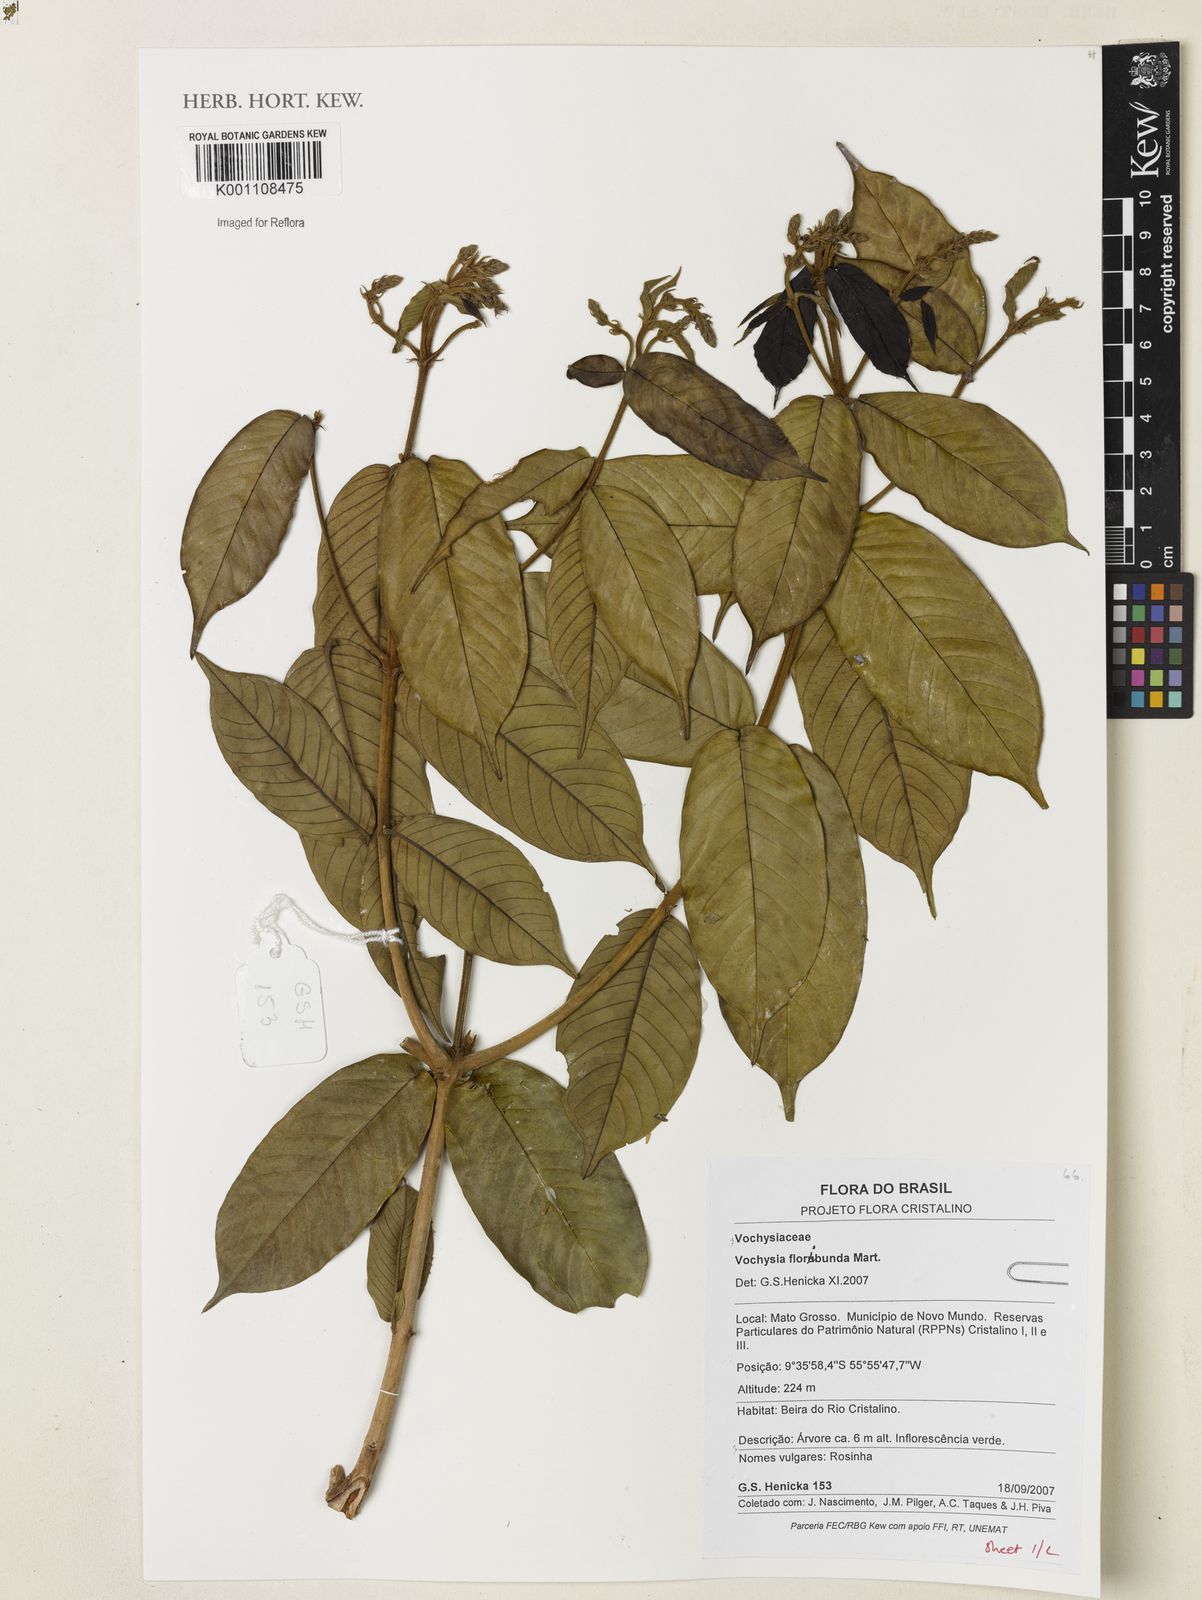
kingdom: Plantae
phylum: Tracheophyta
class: Magnoliopsida
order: Myrtales
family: Vochysiaceae
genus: Vochysia
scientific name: Vochysia floribunda
